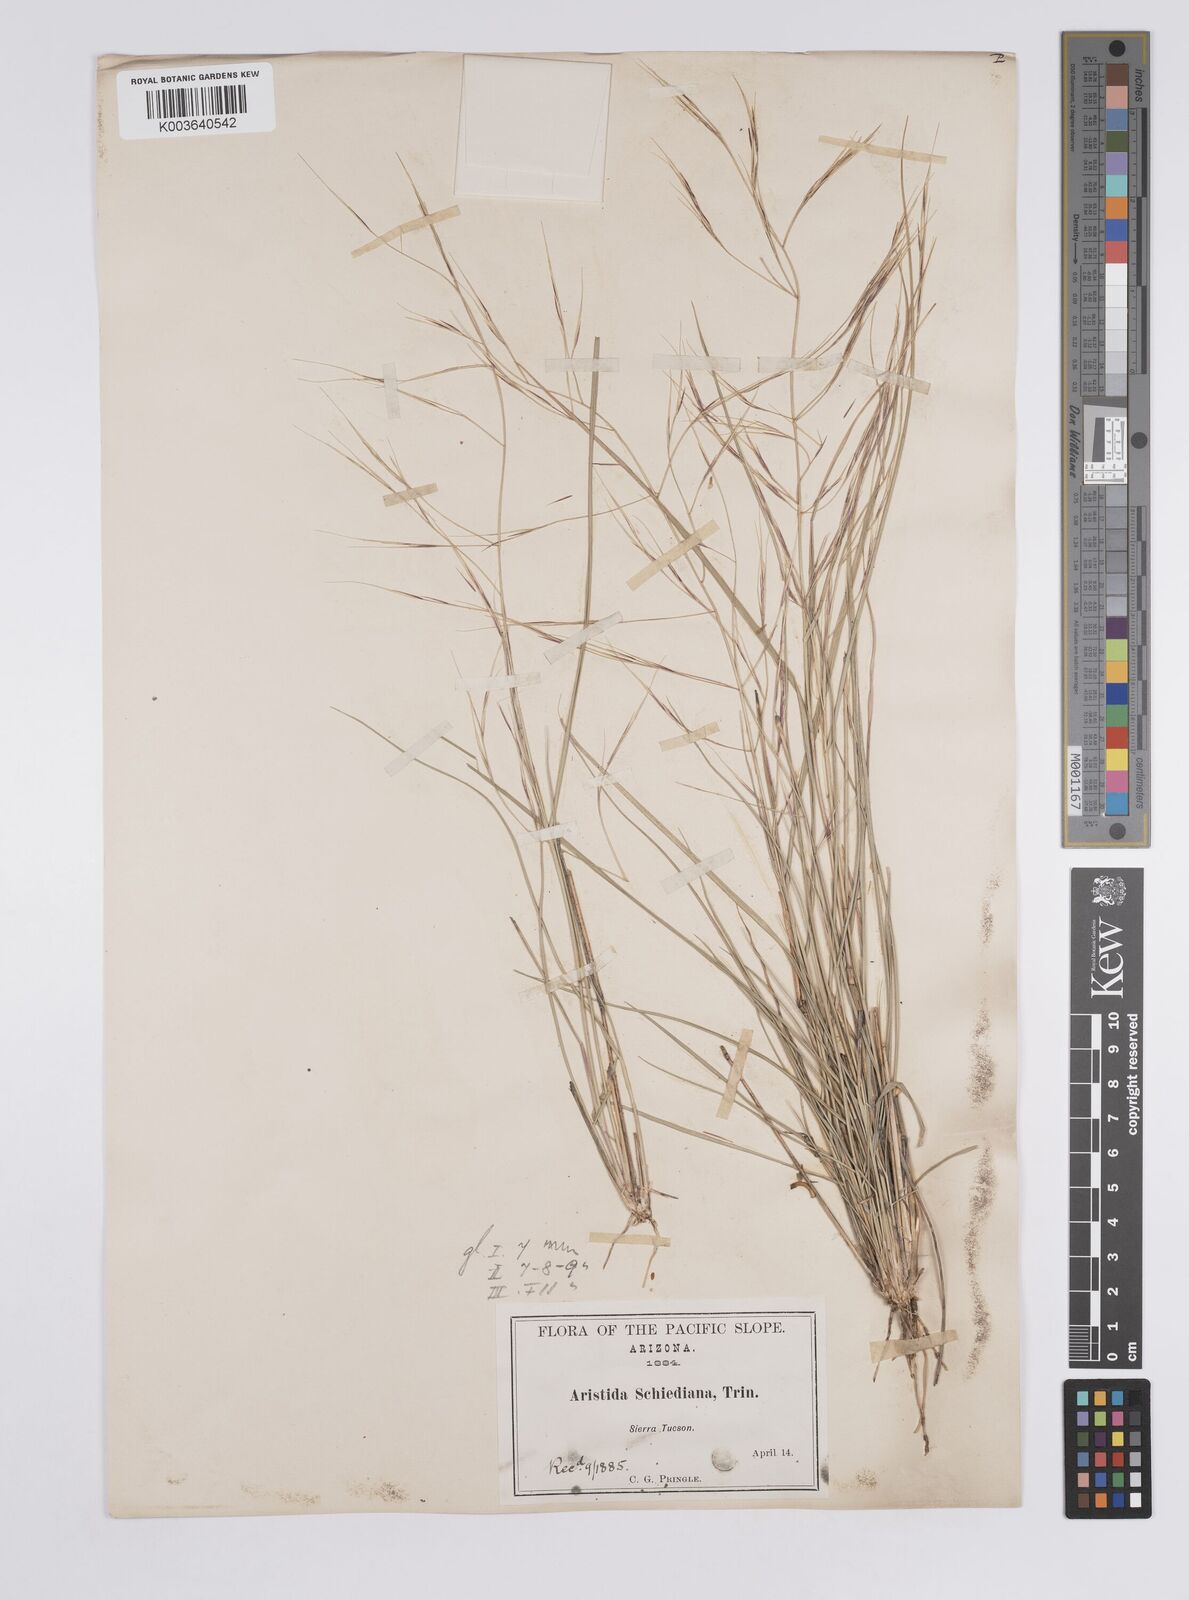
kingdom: Plantae
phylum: Tracheophyta
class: Liliopsida
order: Poales
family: Poaceae
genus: Aristida
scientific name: Aristida schiedeana
